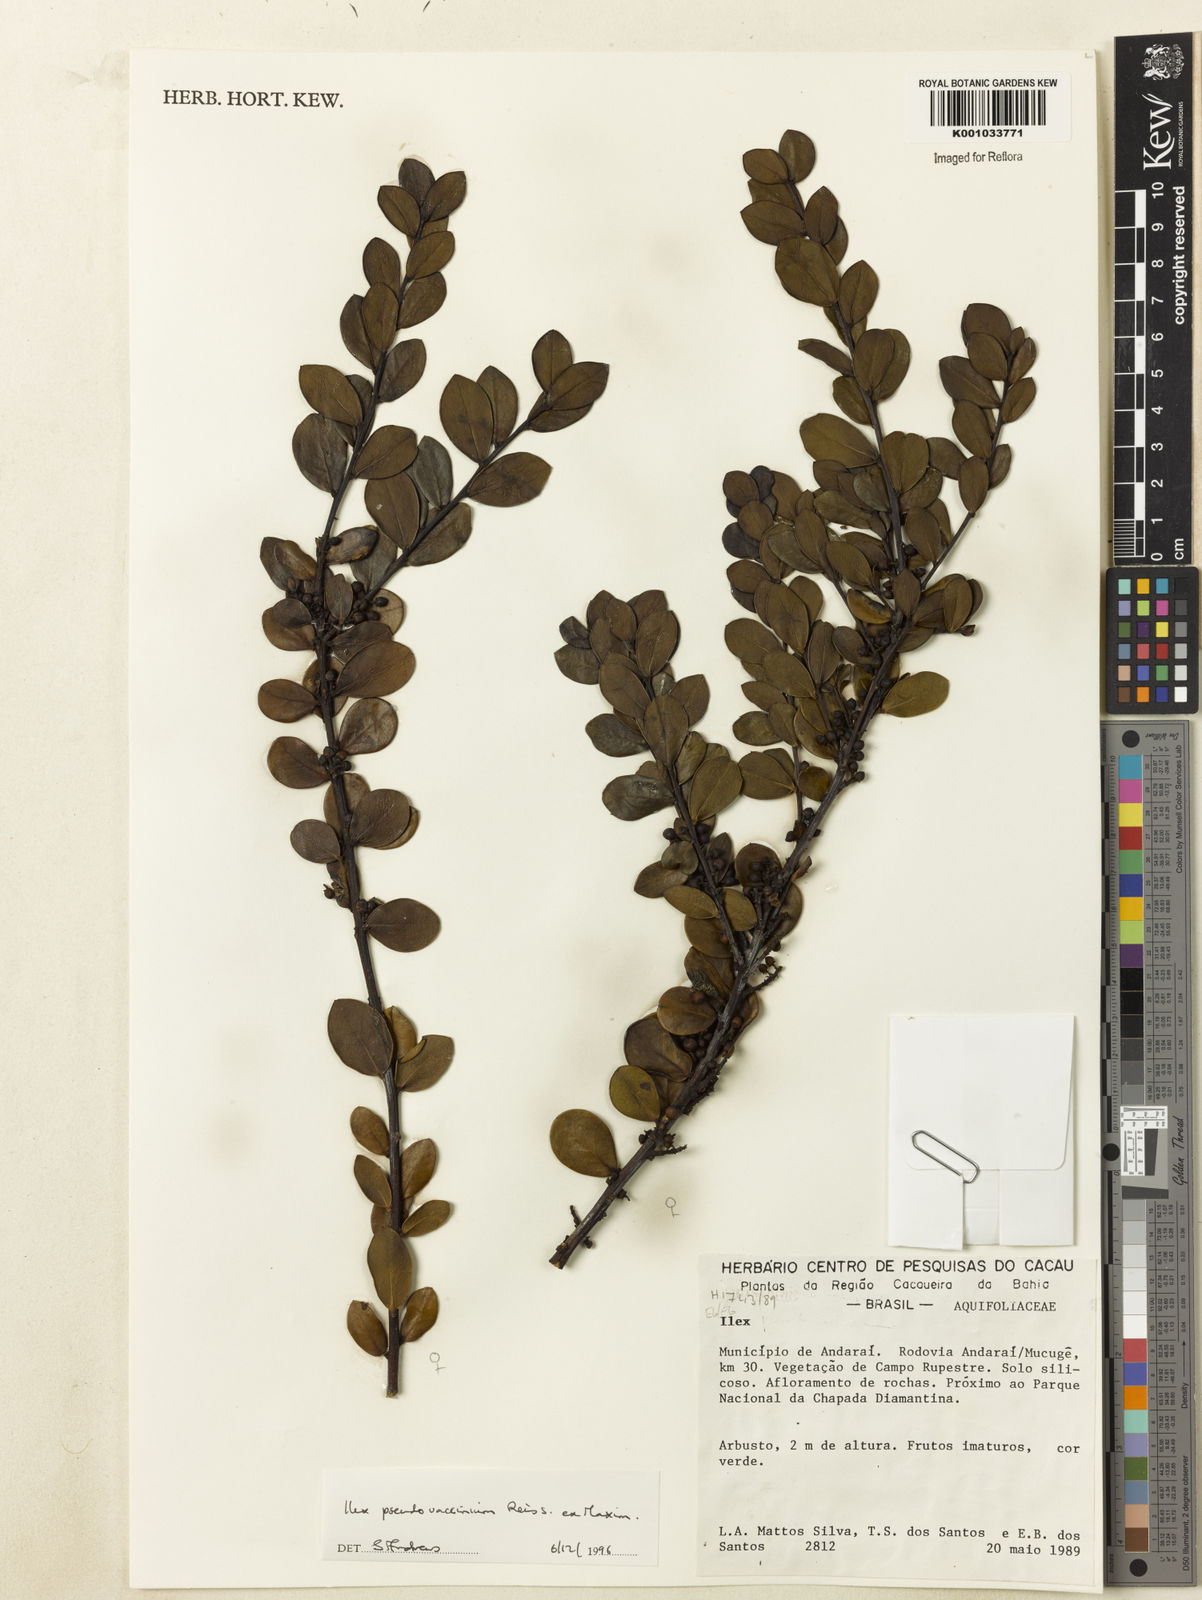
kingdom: Plantae
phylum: Tracheophyta
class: Magnoliopsida
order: Aquifoliales
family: Aquifoliaceae
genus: Ilex
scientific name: Ilex pseudovaccinium
